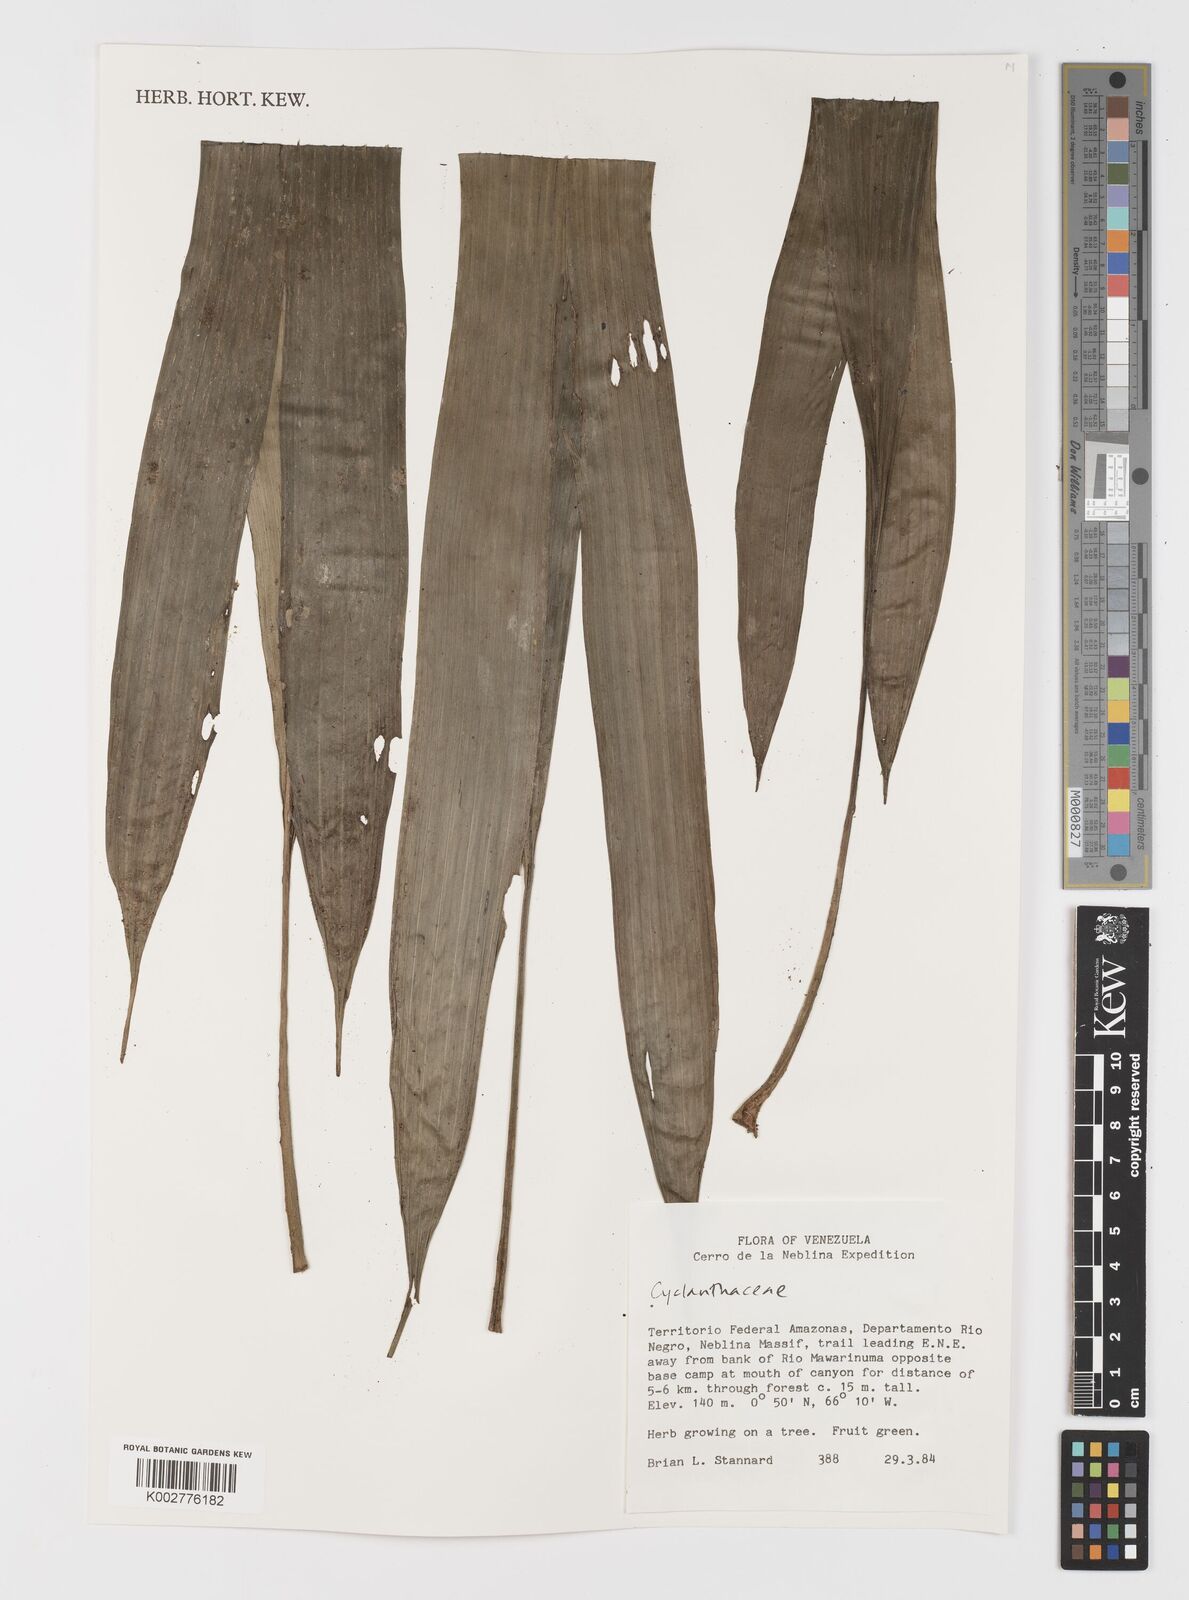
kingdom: Plantae
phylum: Tracheophyta
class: Liliopsida
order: Pandanales
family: Cyclanthaceae
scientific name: Cyclanthaceae
